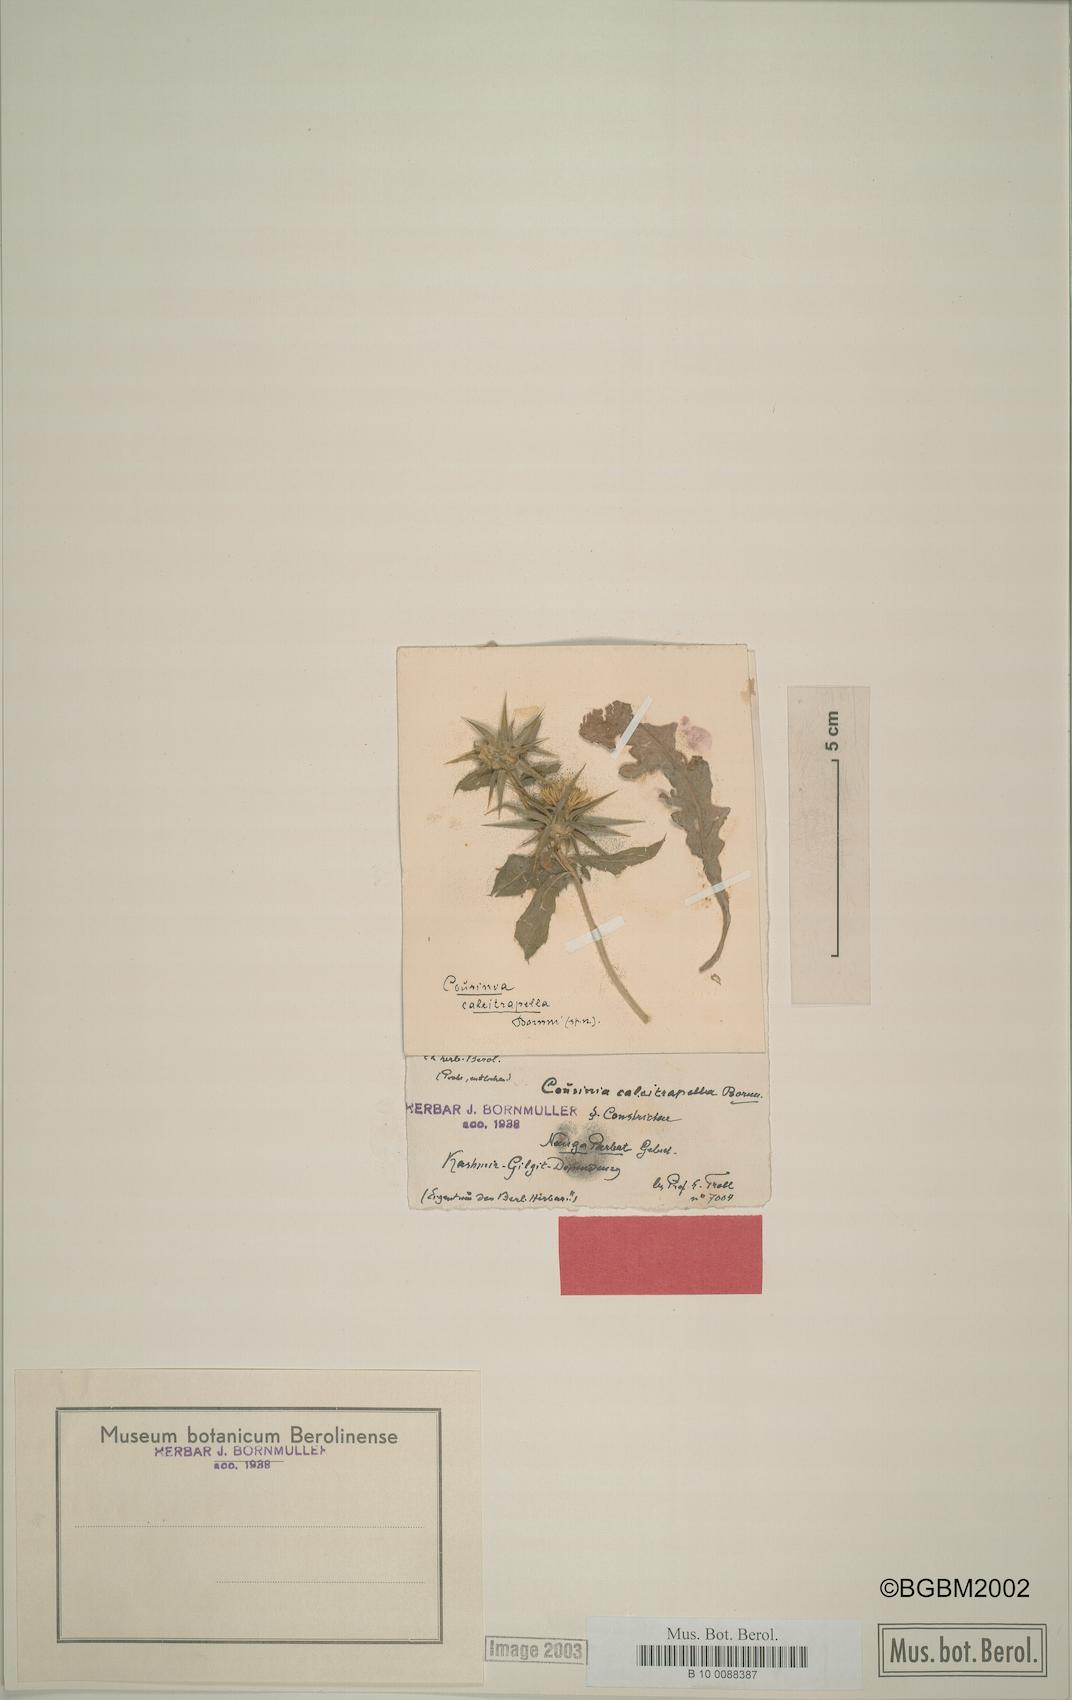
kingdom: Plantae
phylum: Tracheophyta
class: Magnoliopsida
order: Asterales
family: Asteraceae
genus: Cousinia
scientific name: Cousinia calcitrapella
